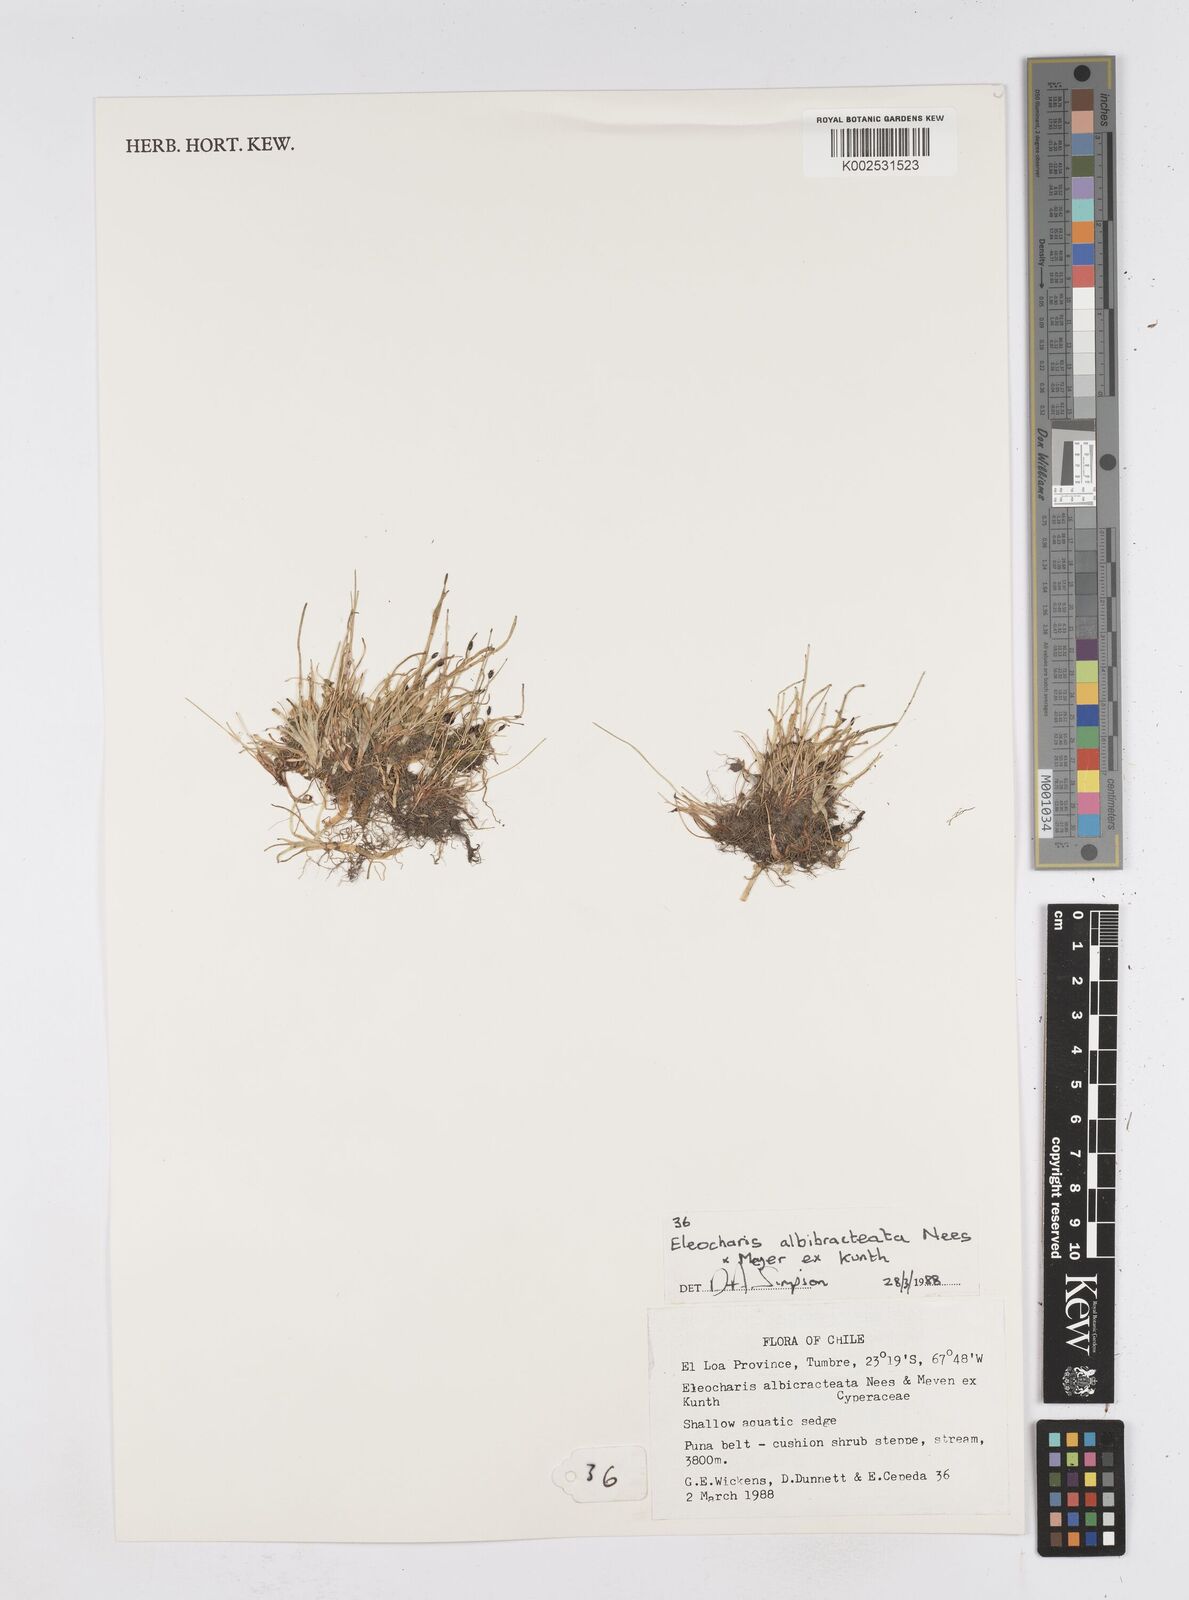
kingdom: Plantae
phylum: Tracheophyta
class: Liliopsida
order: Poales
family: Cyperaceae
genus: Eleocharis
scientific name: Eleocharis albibracteata
